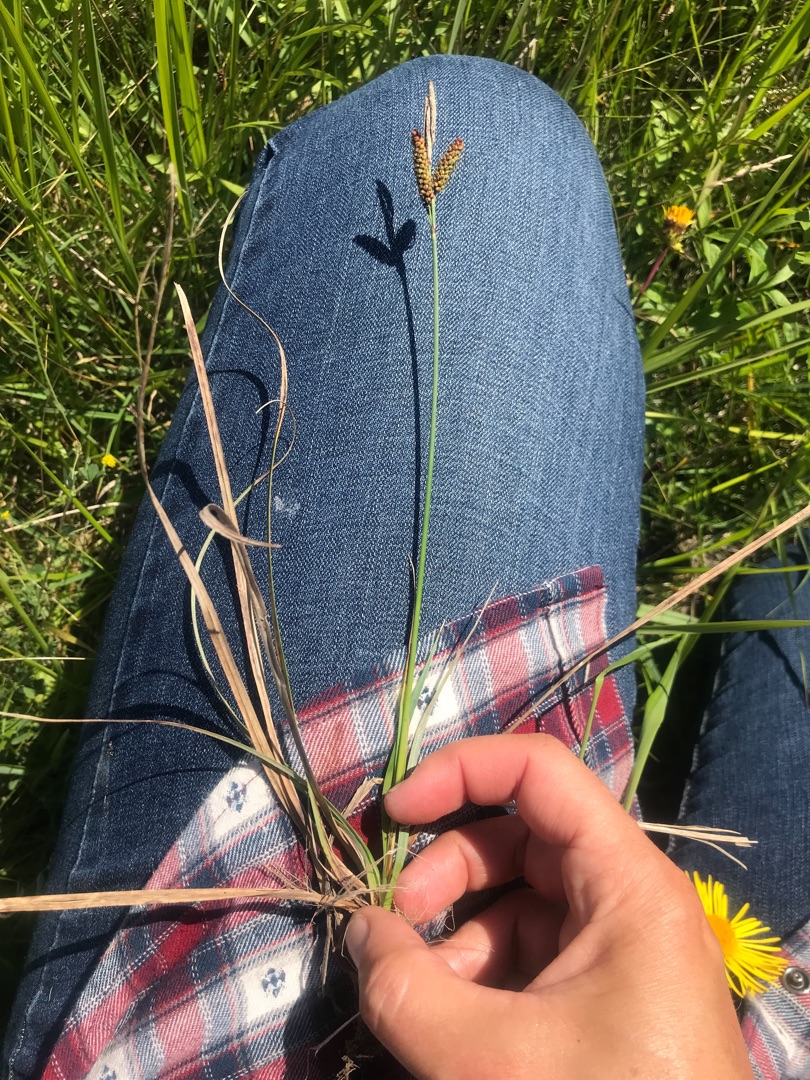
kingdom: Plantae
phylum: Tracheophyta
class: Liliopsida
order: Poales
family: Cyperaceae
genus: Carex
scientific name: Carex flacca
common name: Blågrøn star
